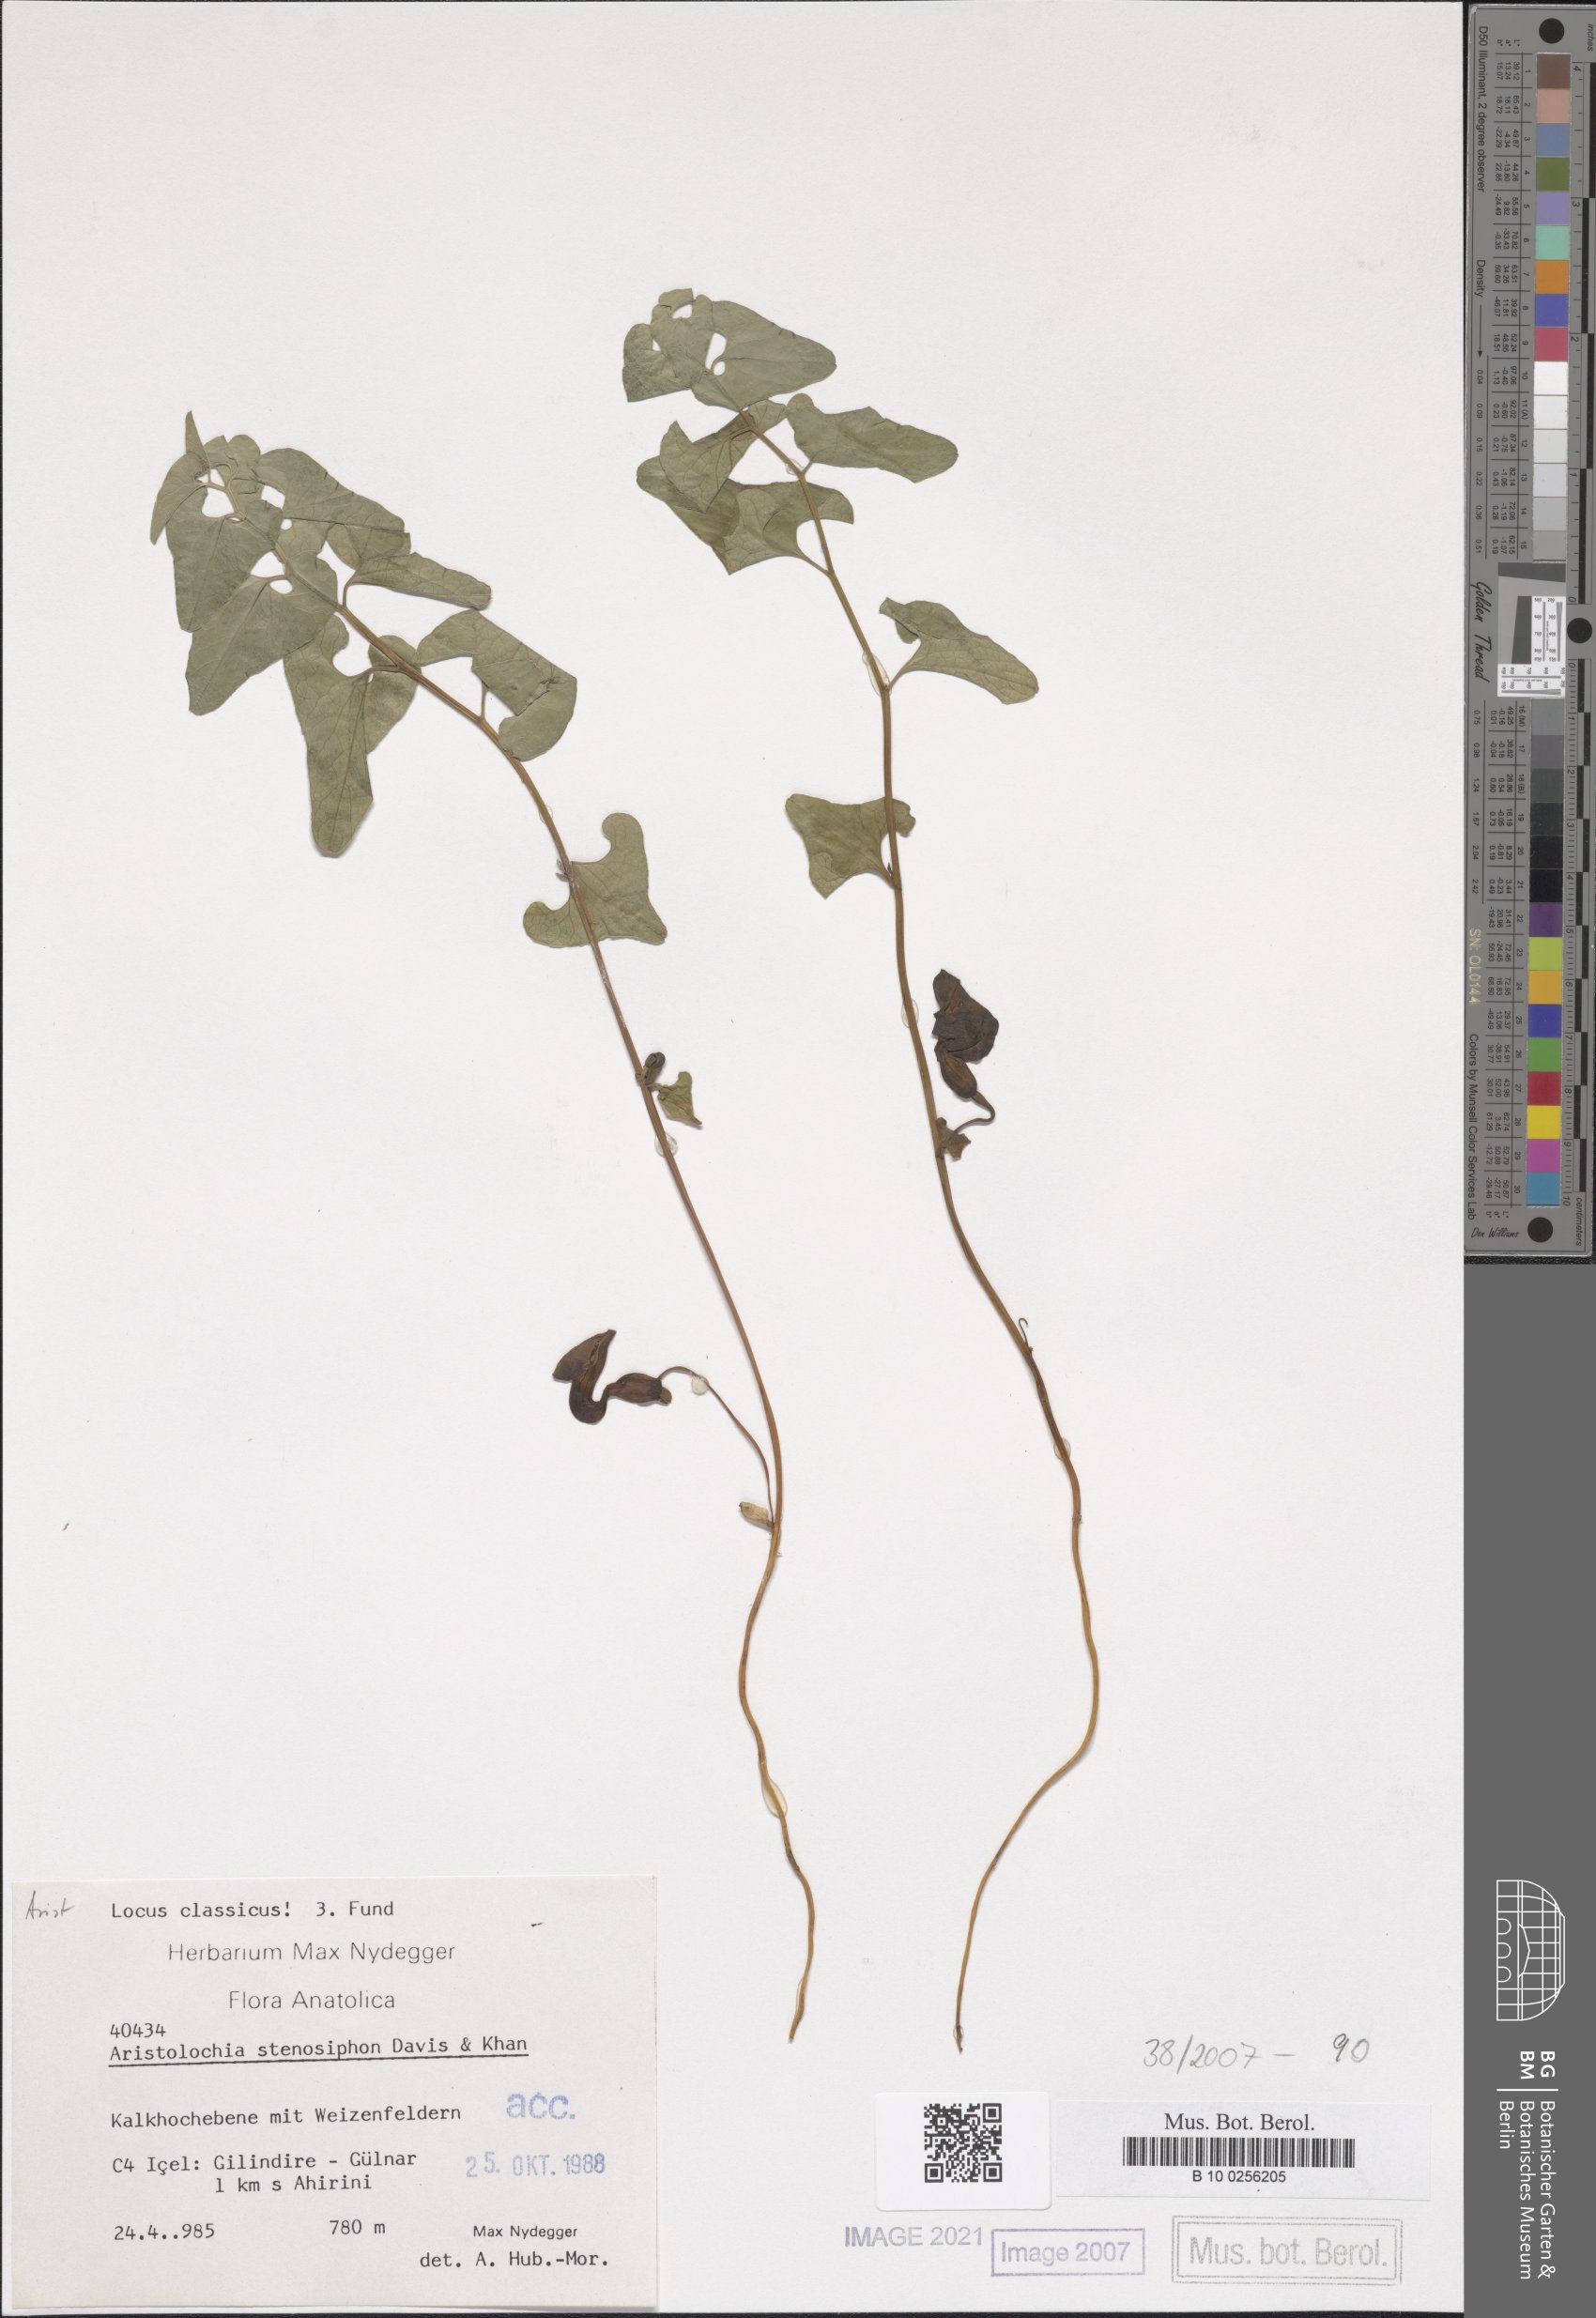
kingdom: Plantae
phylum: Tracheophyta
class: Magnoliopsida
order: Piperales
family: Aristolochiaceae
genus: Aristolochia
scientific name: Aristolochia stenosiphon
